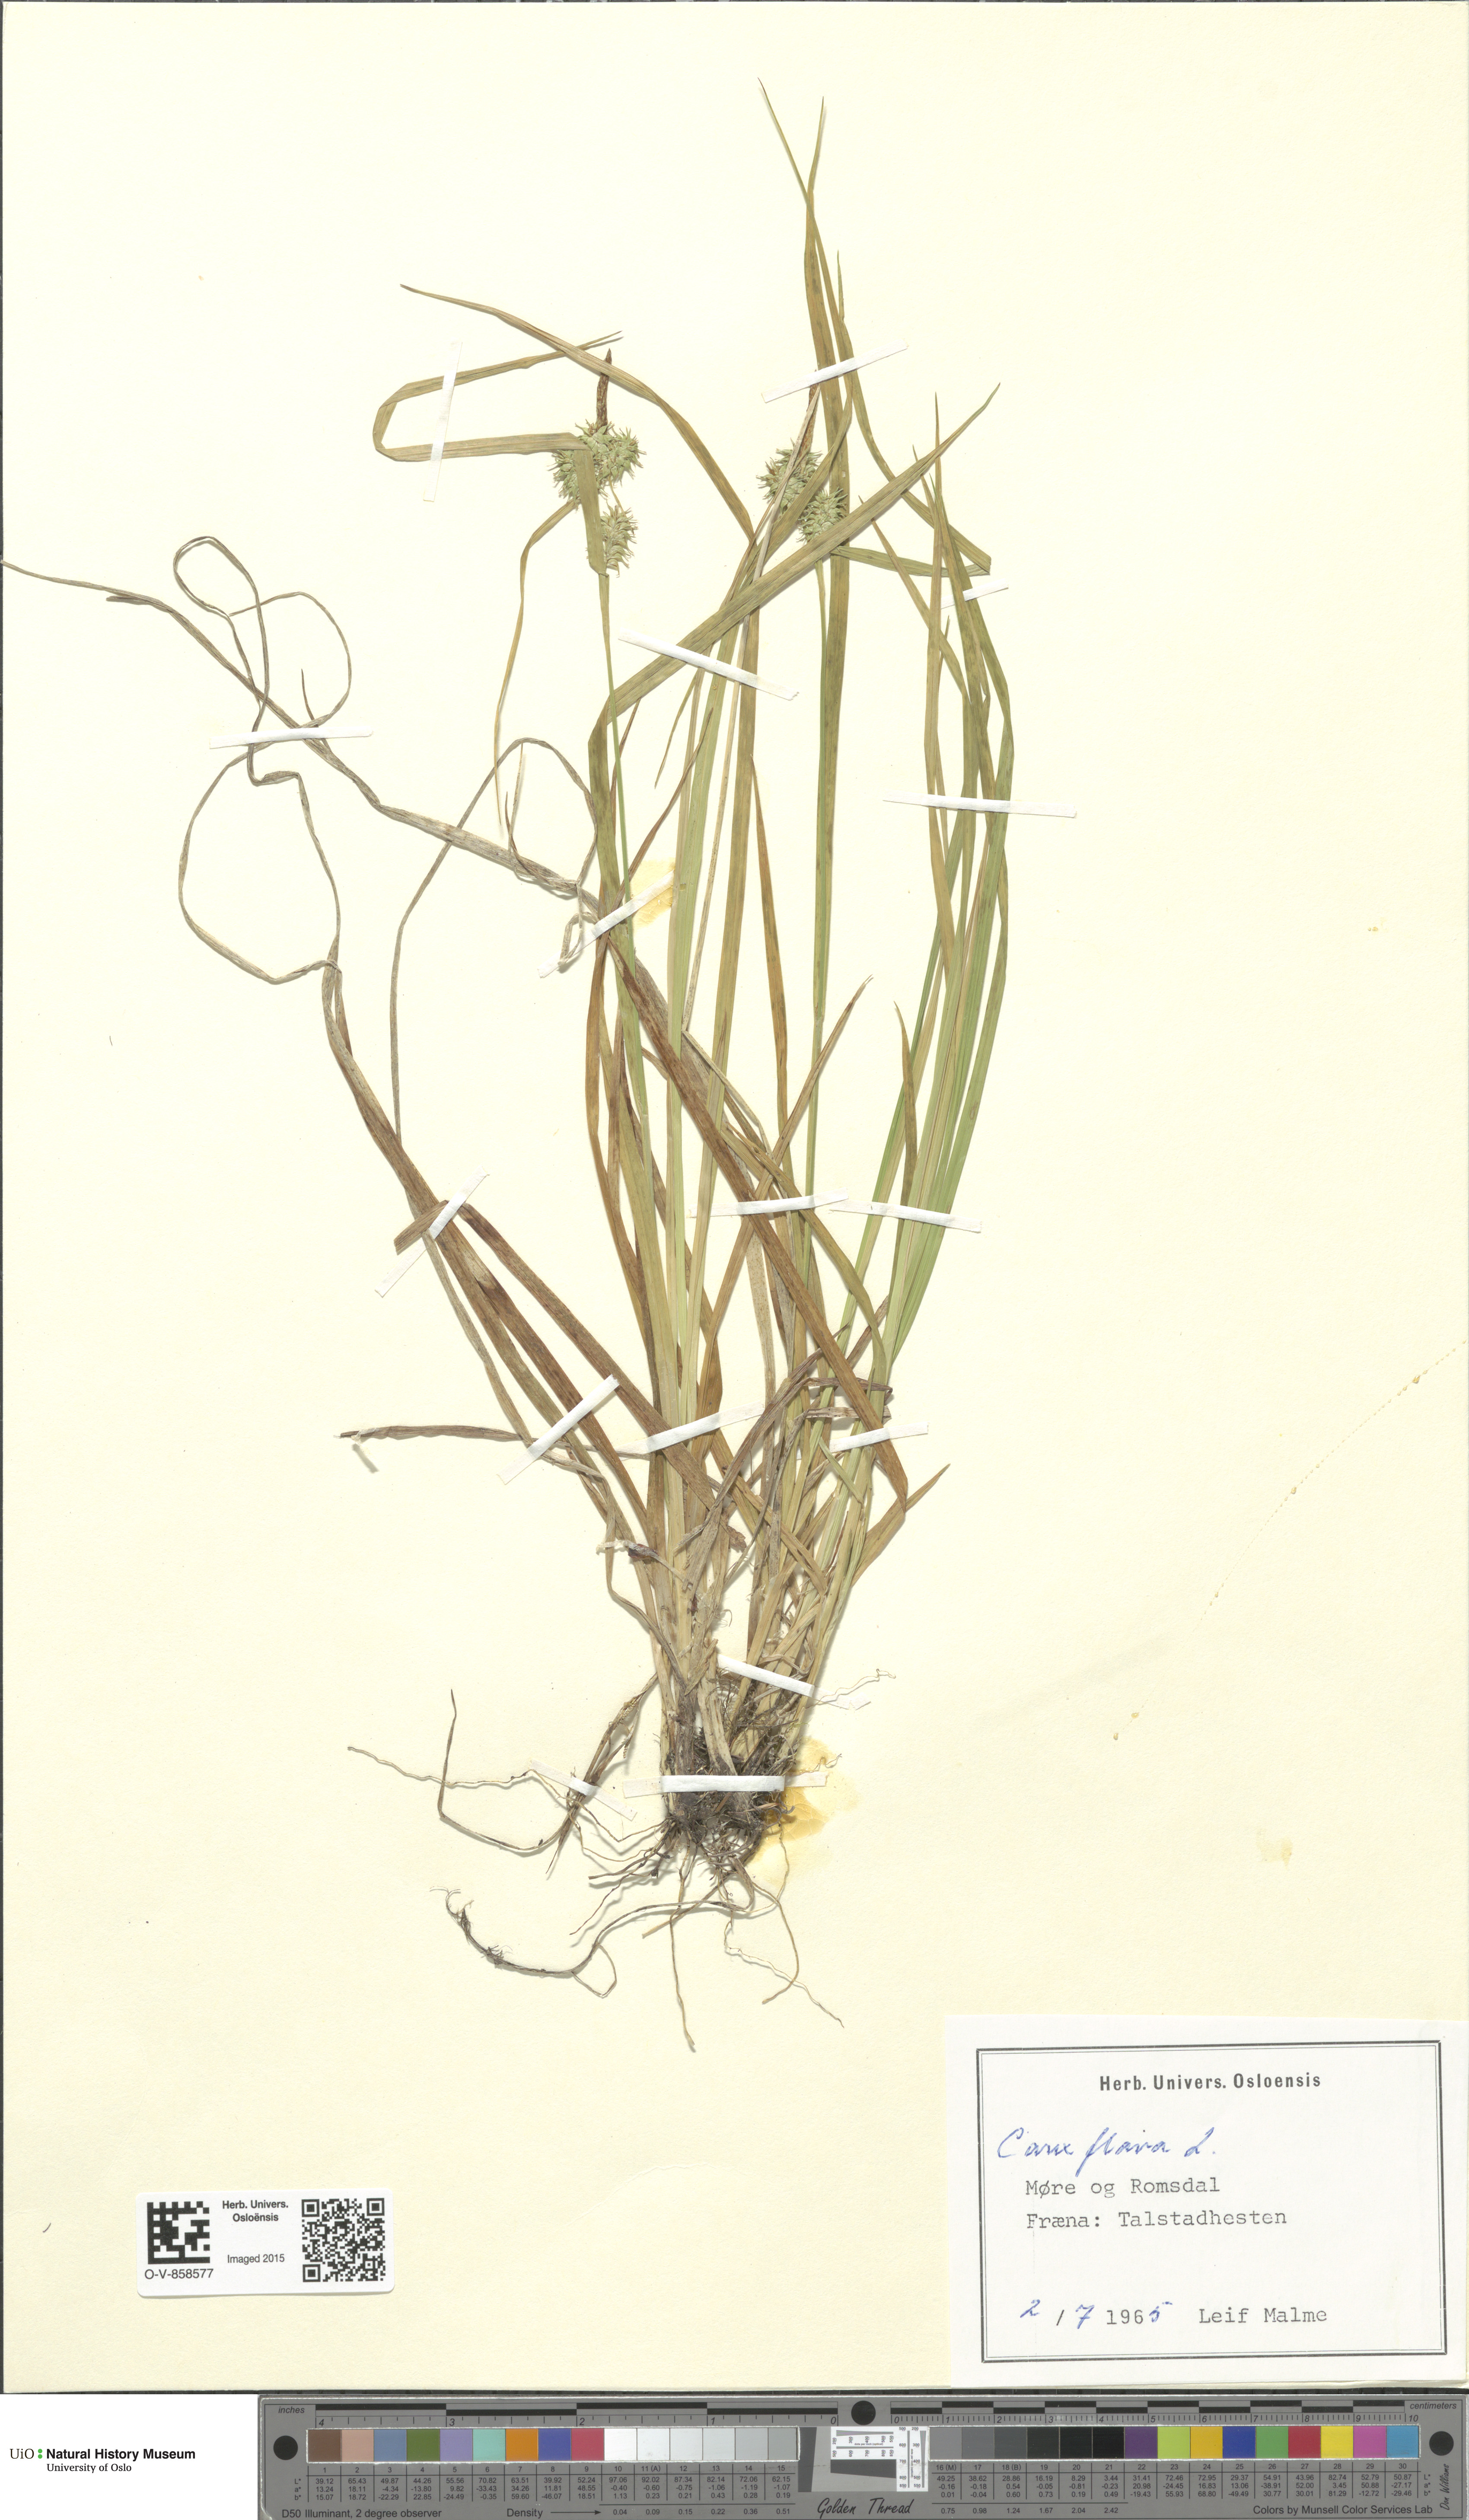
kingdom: Plantae
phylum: Tracheophyta
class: Liliopsida
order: Poales
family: Cyperaceae
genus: Carex
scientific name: Carex flava
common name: Large yellow-sedge
